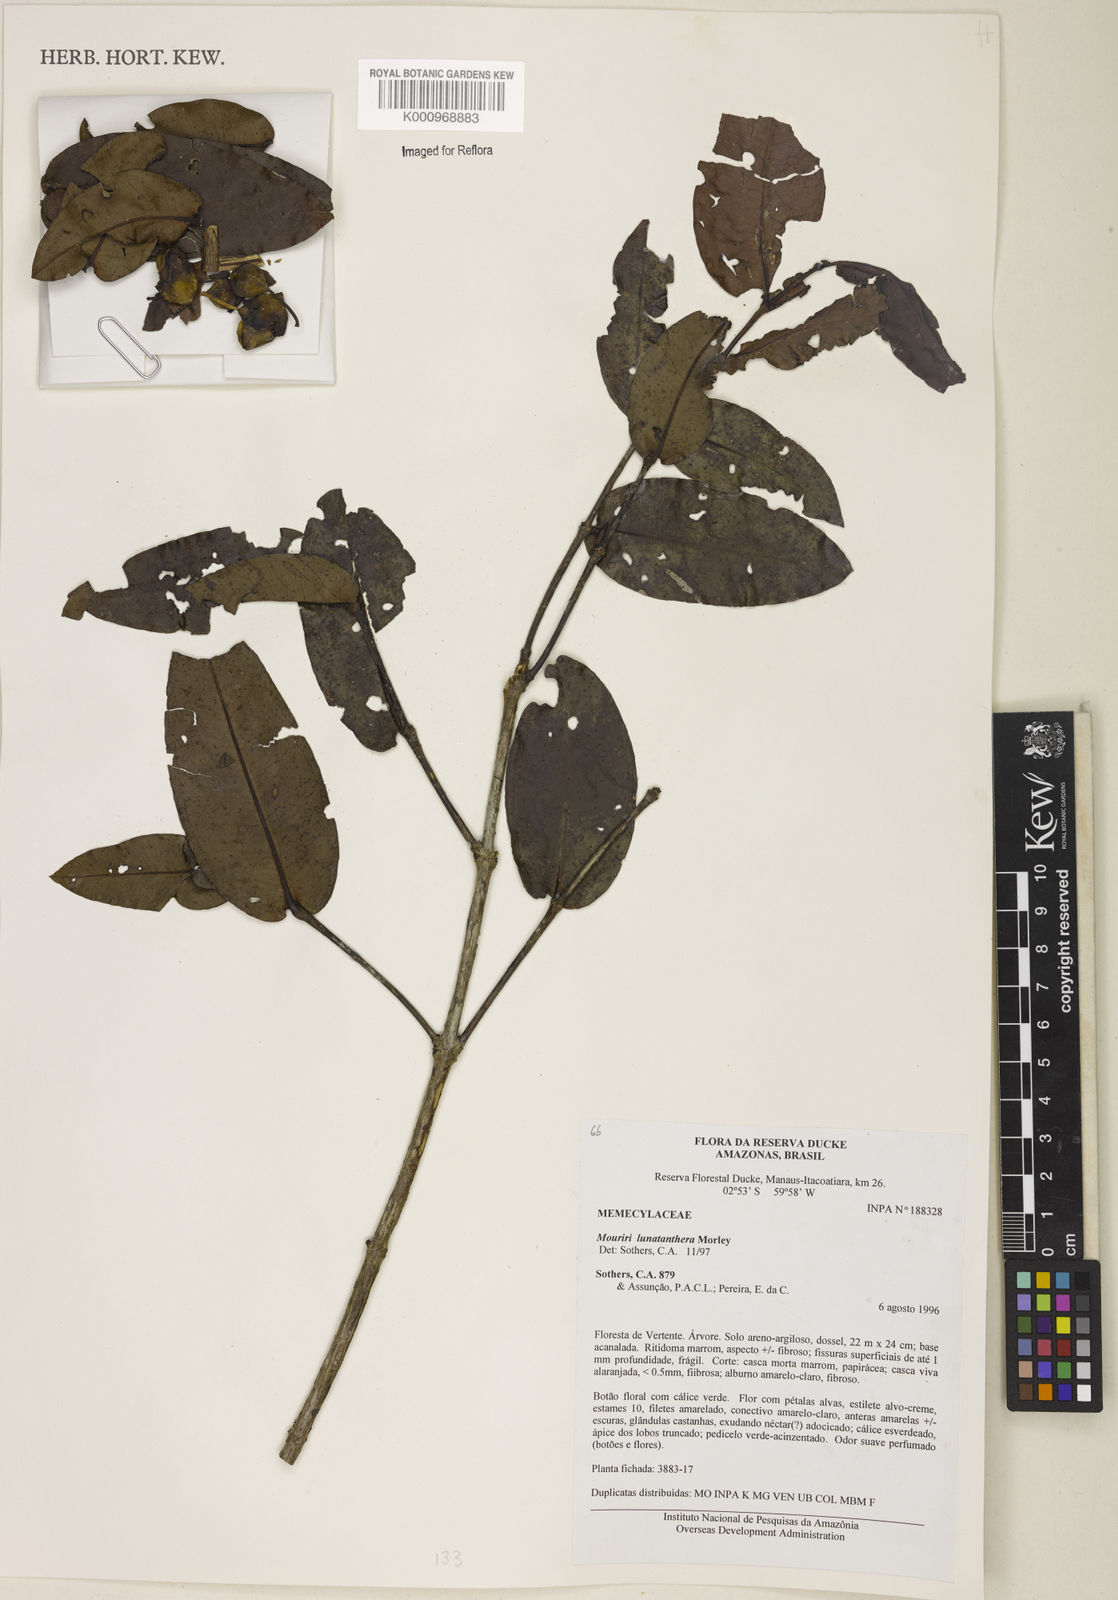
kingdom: Plantae
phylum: Tracheophyta
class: Magnoliopsida
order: Myrtales
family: Melastomataceae
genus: Mouriri
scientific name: Mouriri
